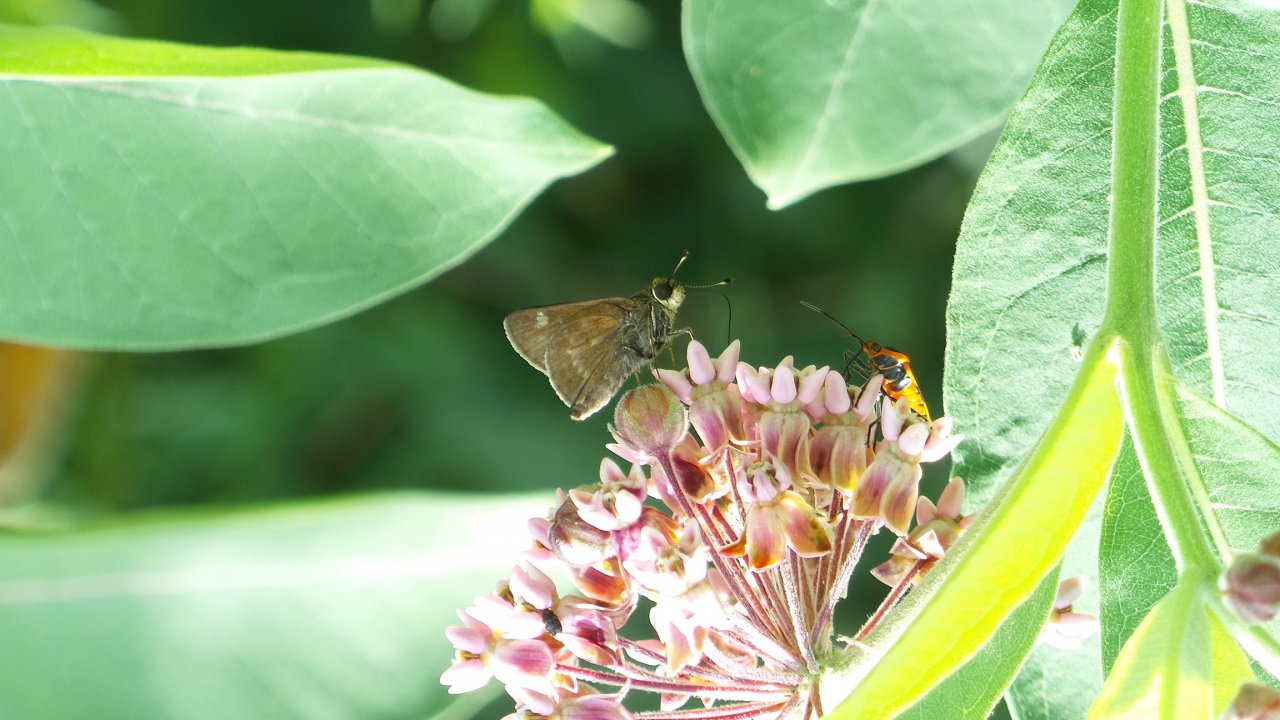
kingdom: Animalia
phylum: Arthropoda
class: Insecta
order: Lepidoptera
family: Hesperiidae
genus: Polites
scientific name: Polites egeremet
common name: Northern Broken-Dash
